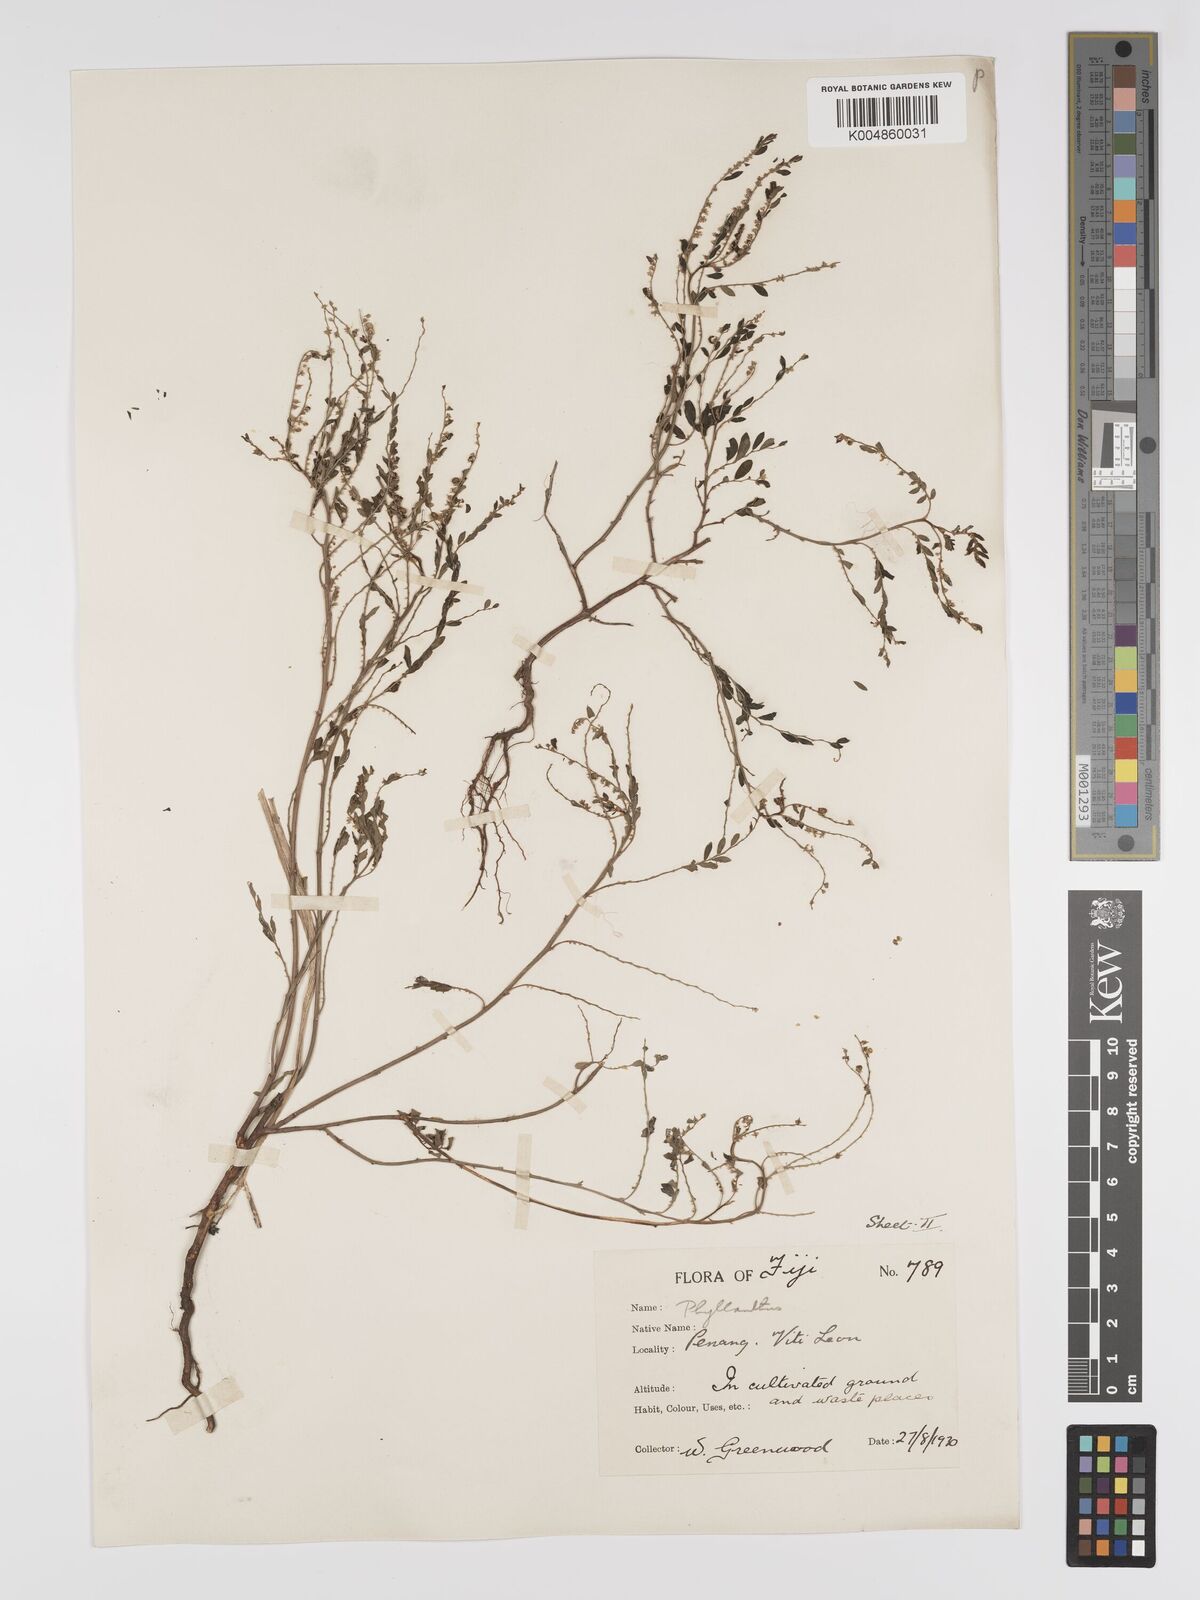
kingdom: Plantae
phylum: Tracheophyta
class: Magnoliopsida
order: Malpighiales
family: Phyllanthaceae
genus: Phyllanthus
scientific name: Phyllanthus
